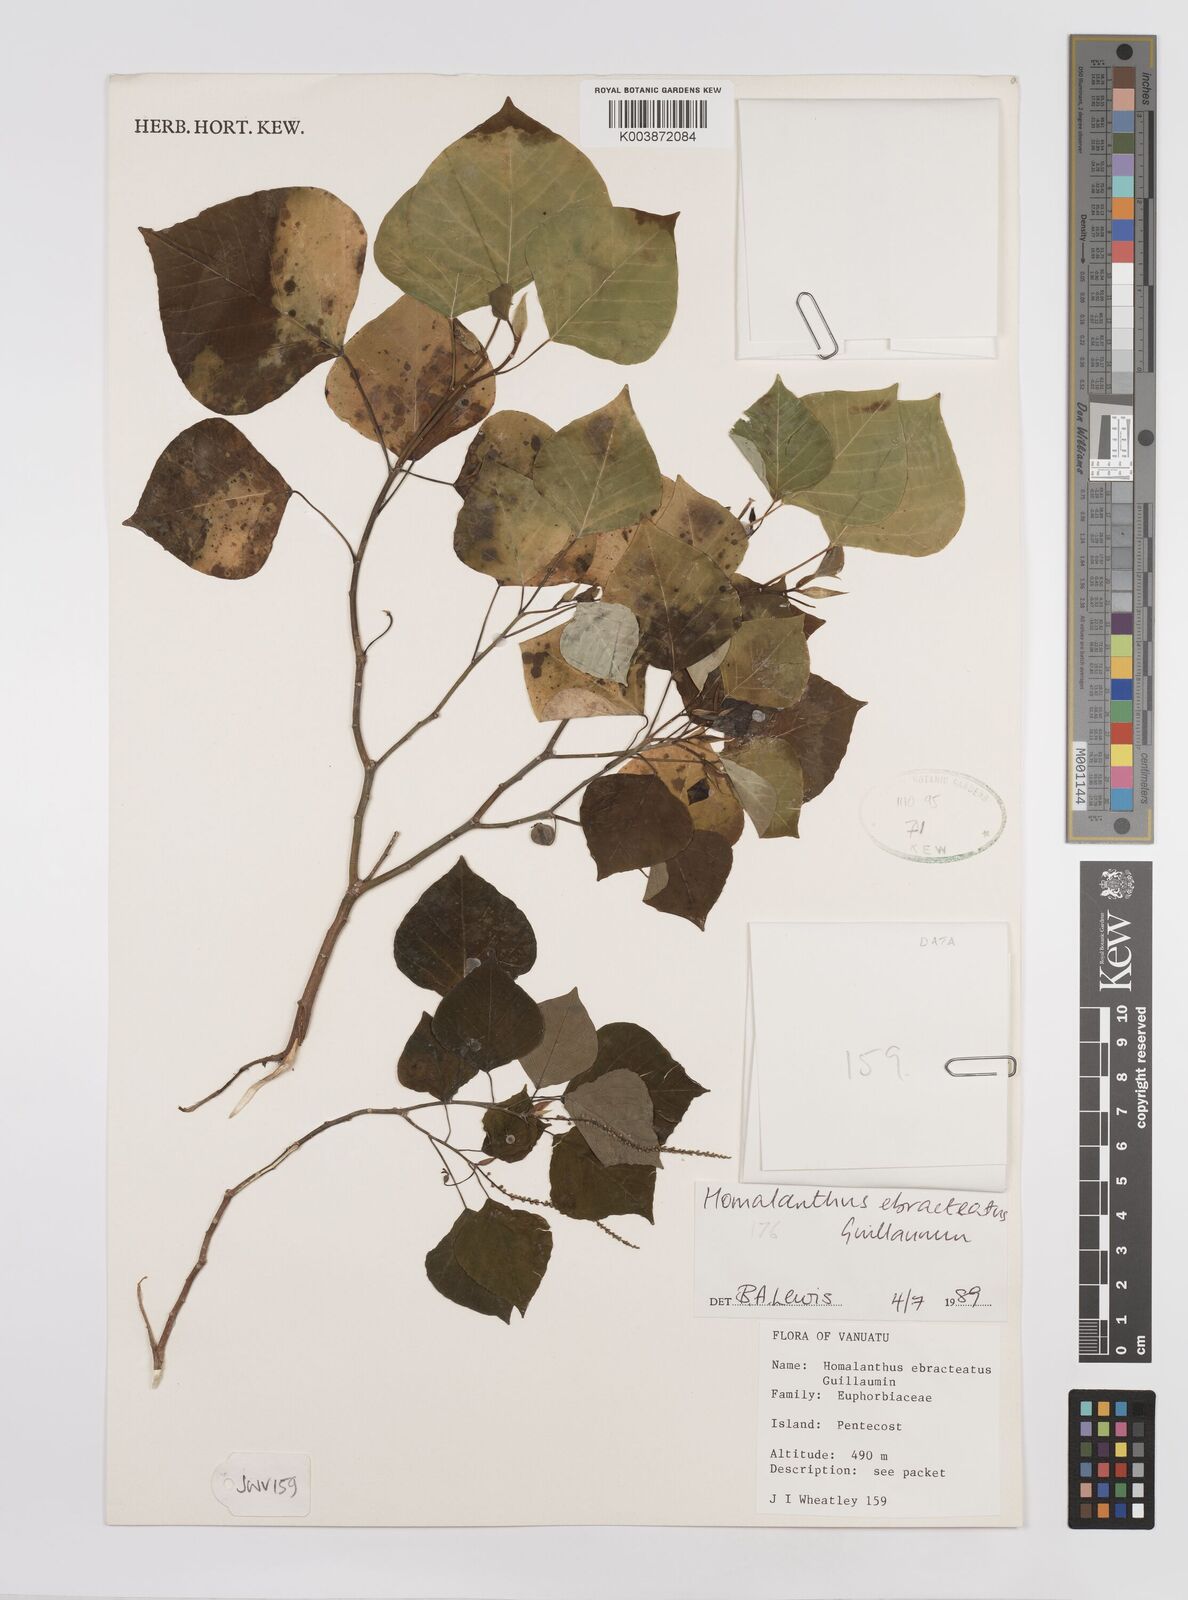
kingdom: Plantae
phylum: Tracheophyta
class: Magnoliopsida
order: Malpighiales
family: Euphorbiaceae
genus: Homalanthus
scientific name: Homalanthus ebracteatua
